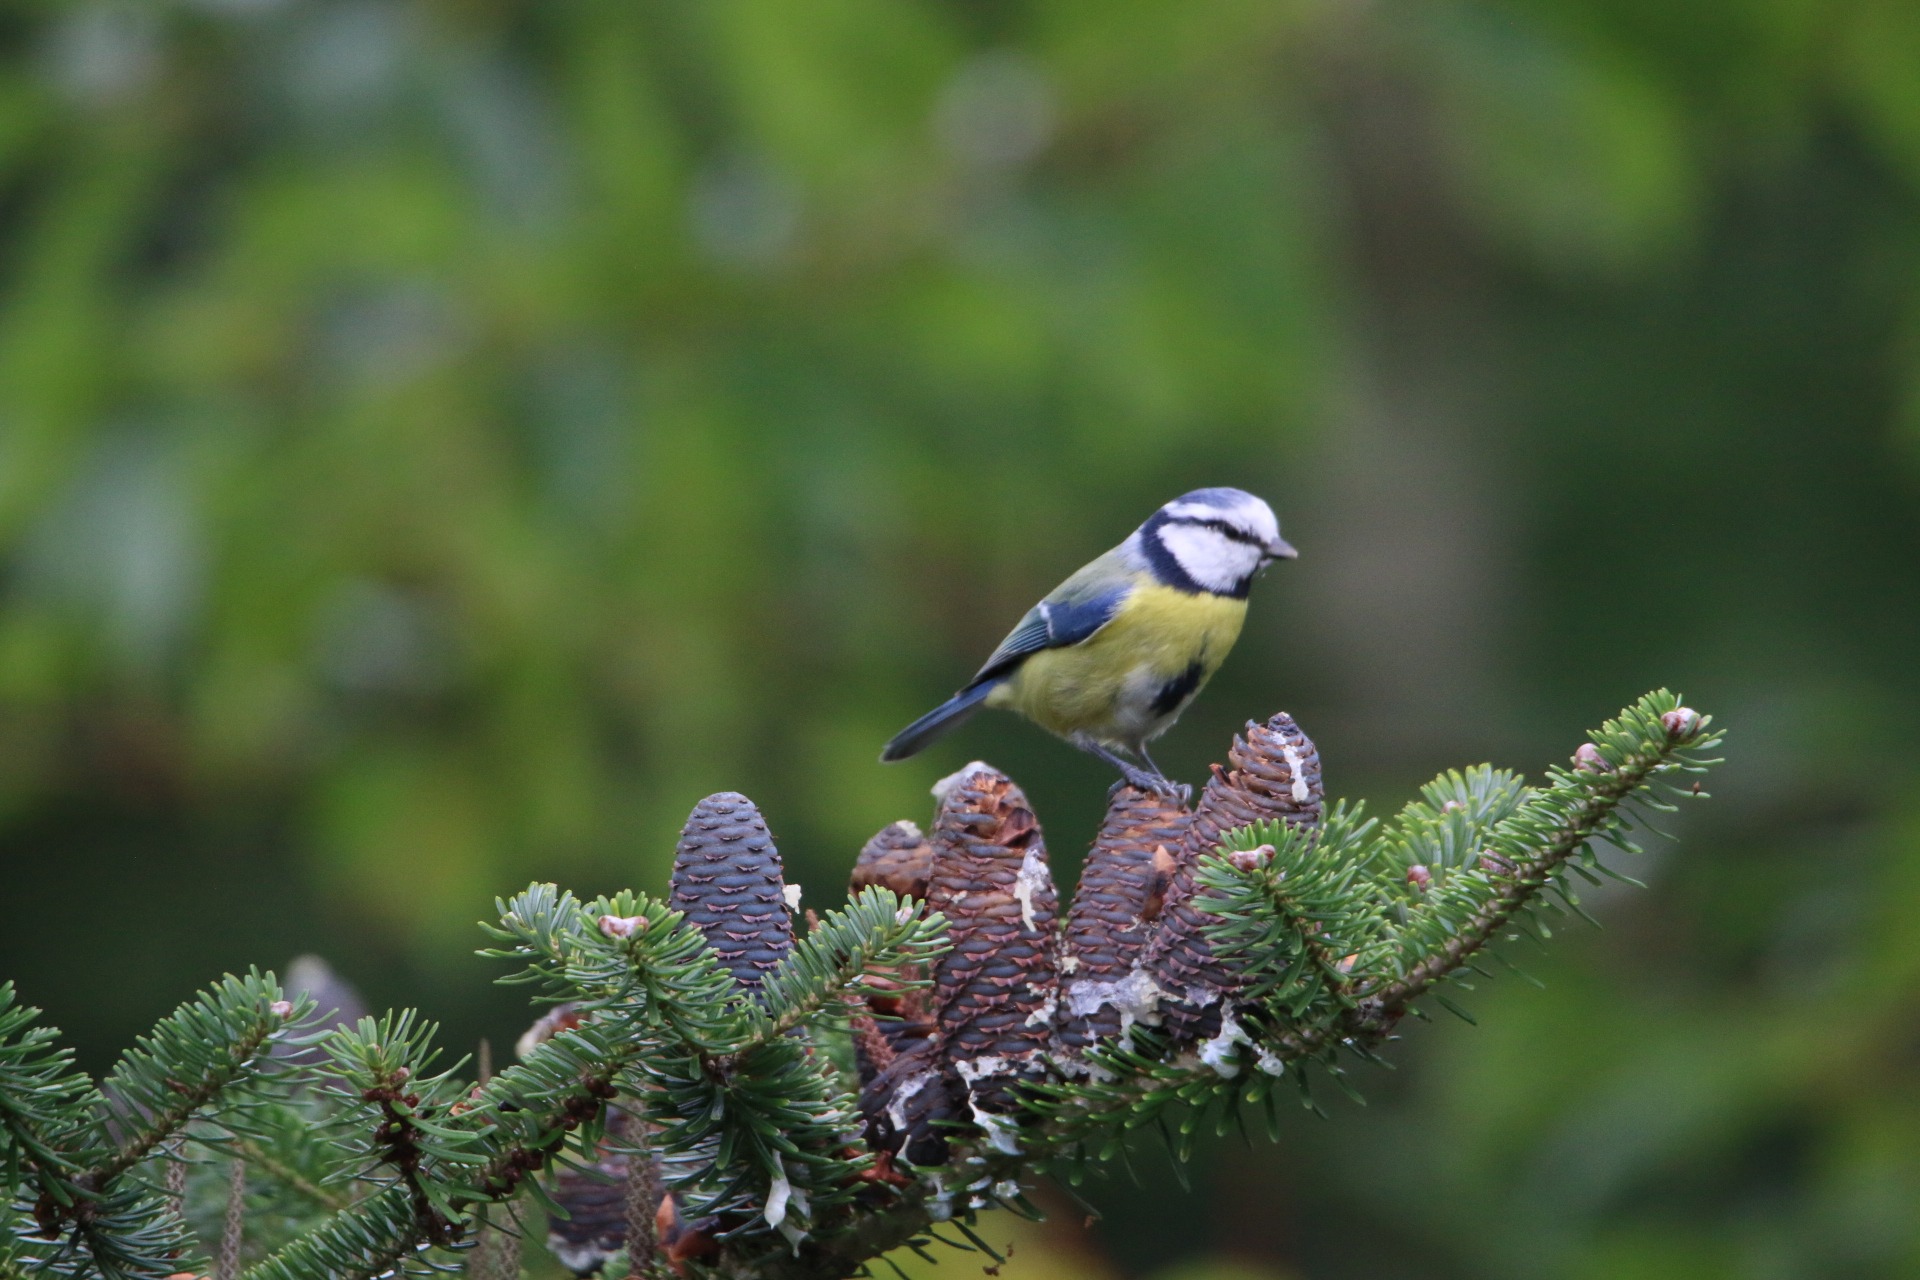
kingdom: Animalia
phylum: Chordata
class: Aves
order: Passeriformes
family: Paridae
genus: Cyanistes
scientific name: Cyanistes caeruleus
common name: Blåmejse
